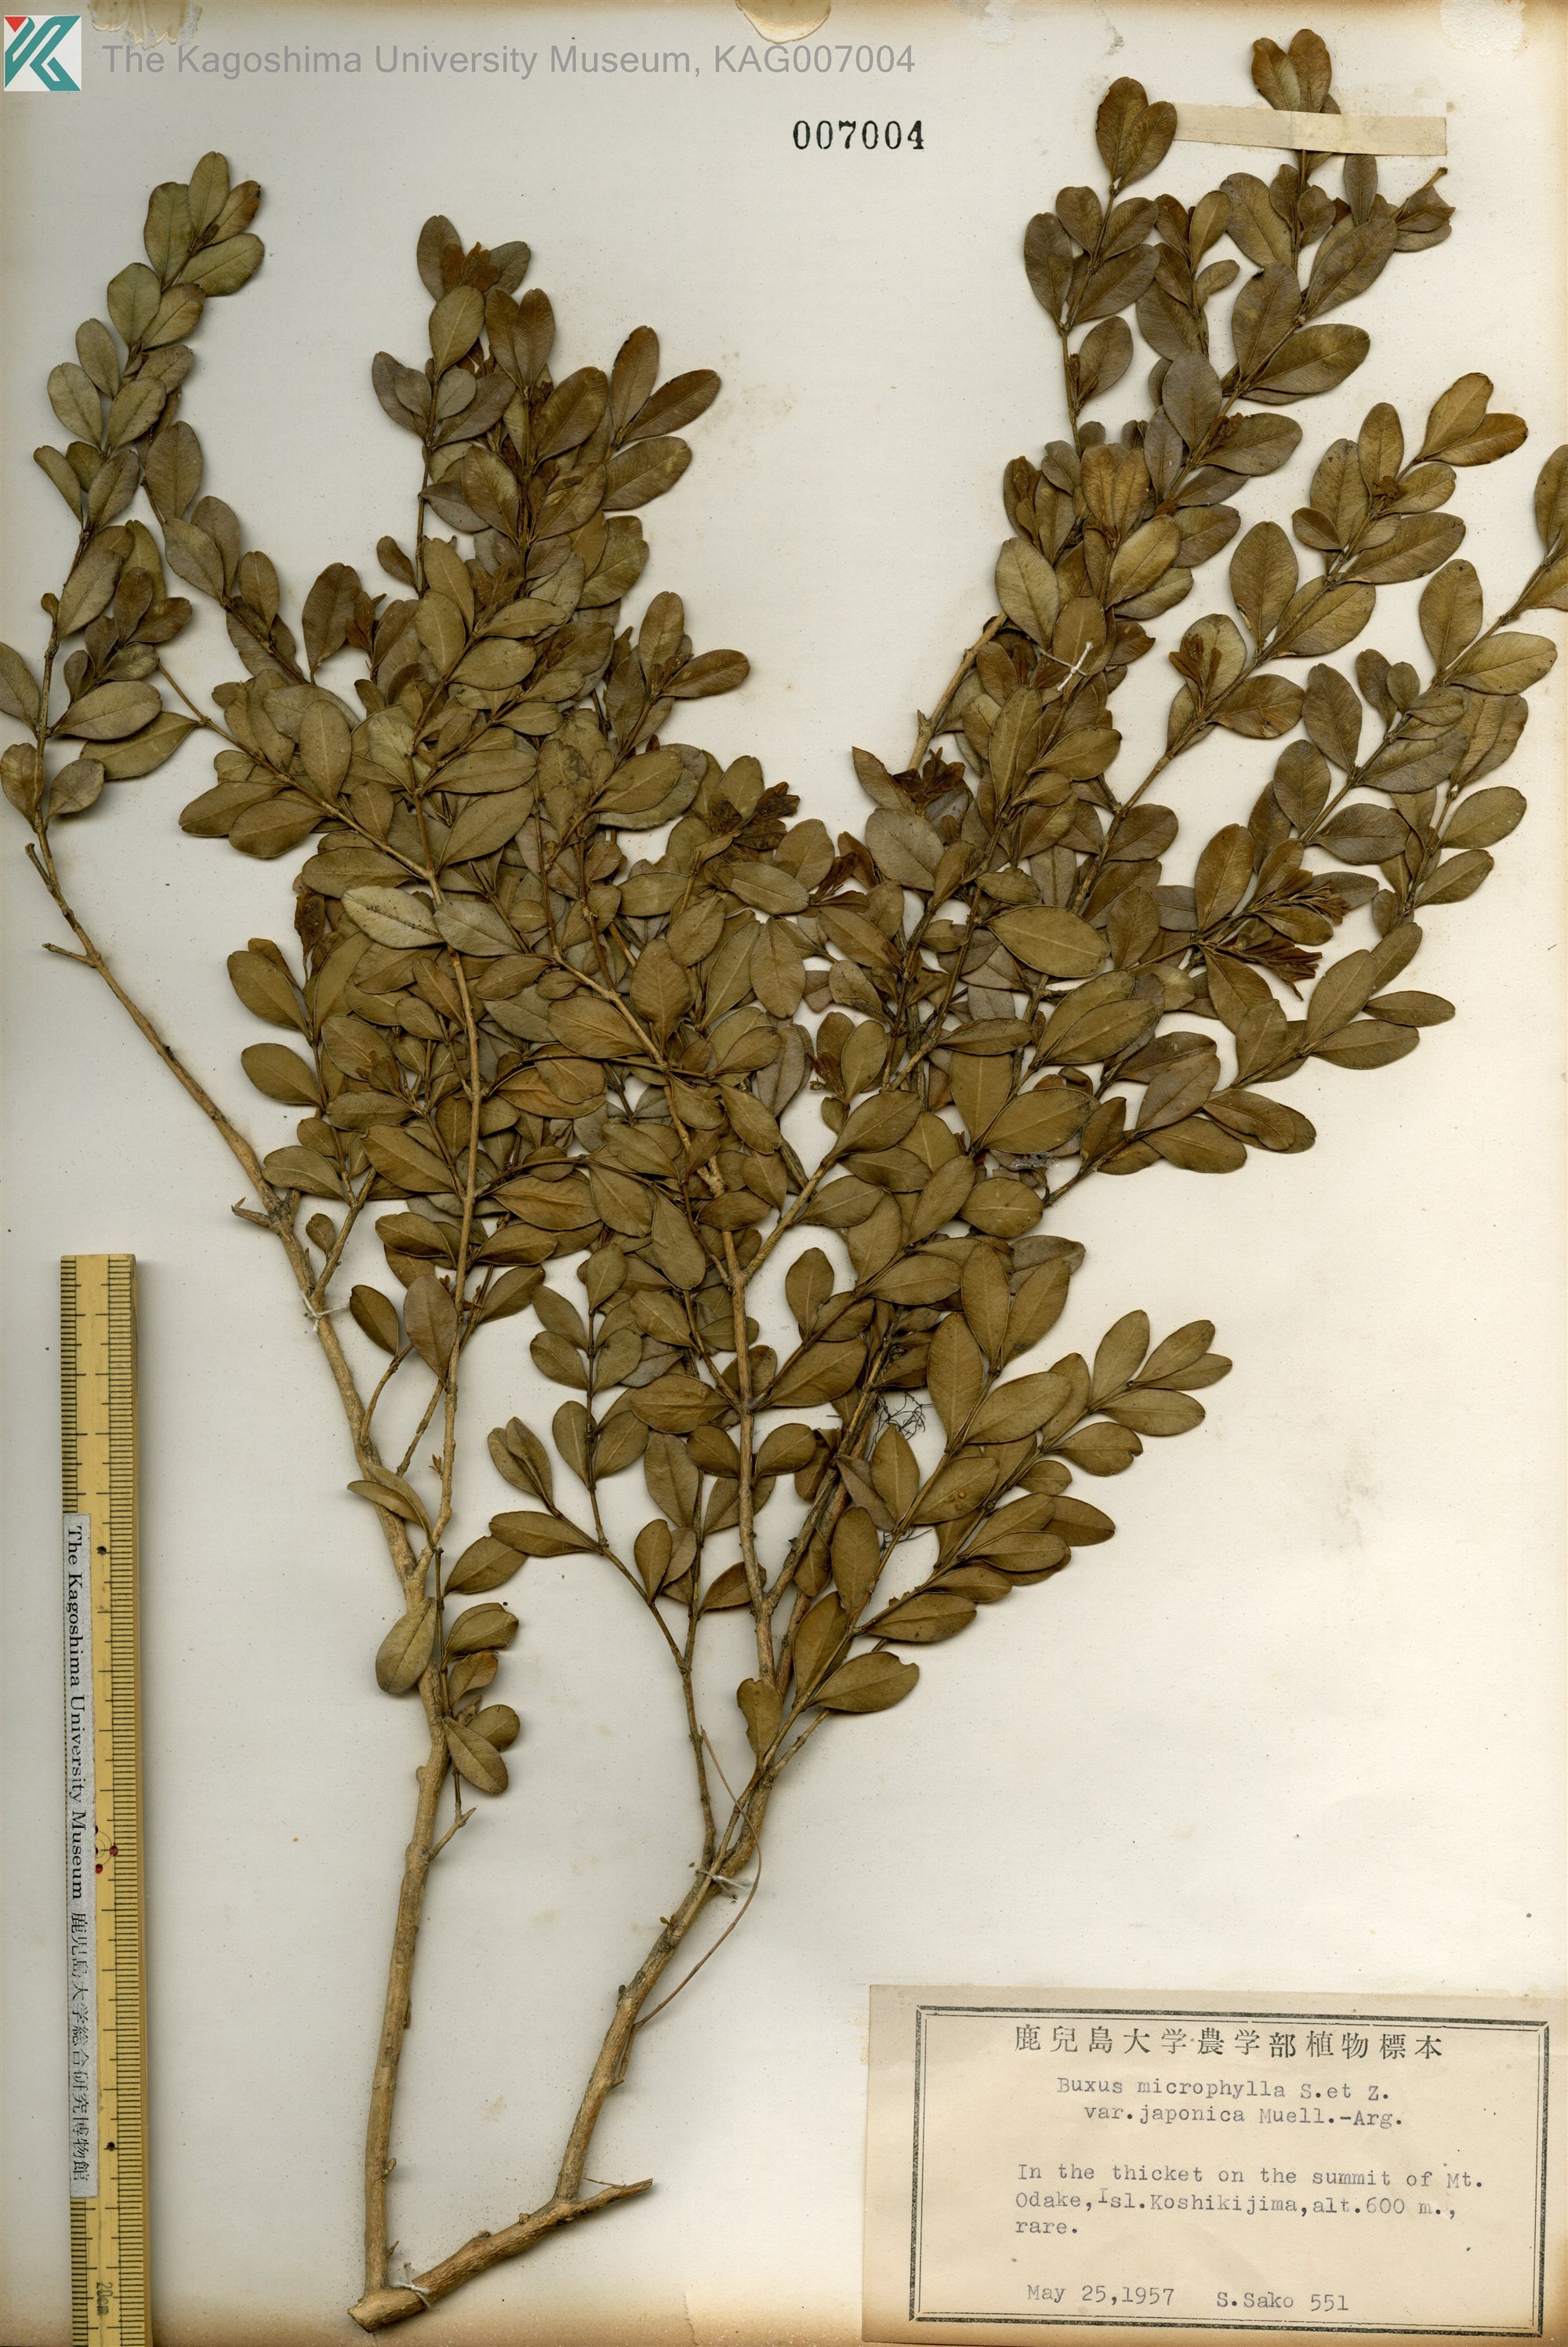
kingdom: Plantae
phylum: Tracheophyta
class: Magnoliopsida
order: Buxales
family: Buxaceae
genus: Buxus
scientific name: Buxus microphylla
